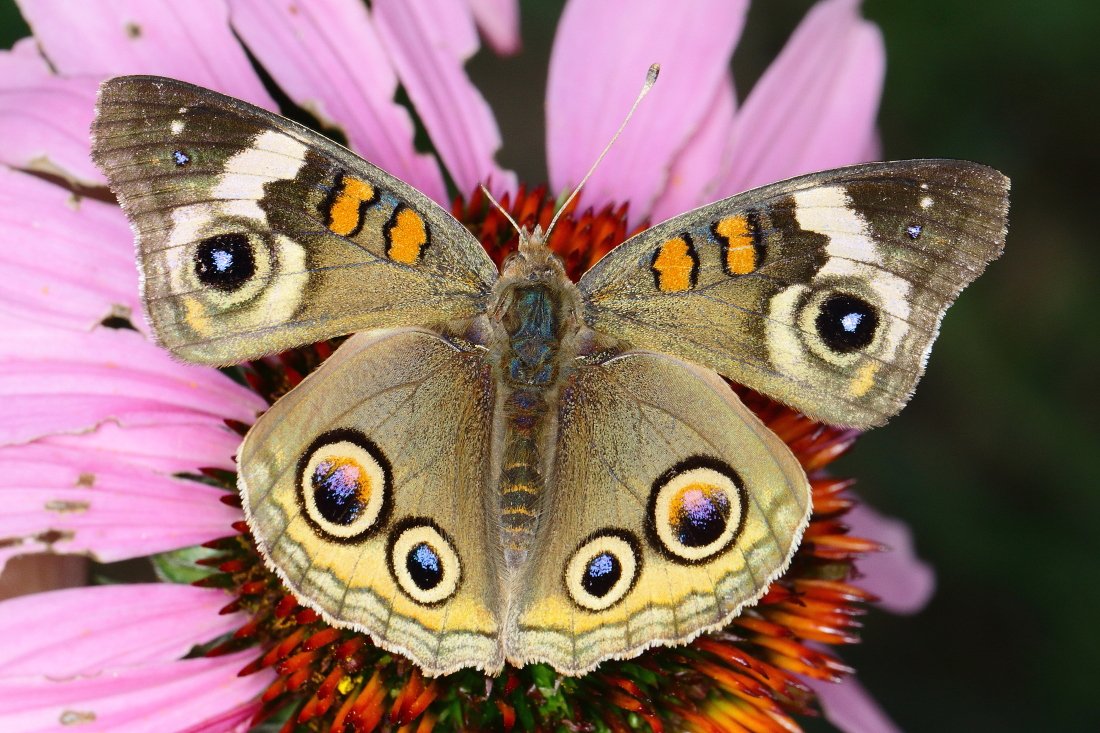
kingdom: Animalia
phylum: Arthropoda
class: Insecta
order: Lepidoptera
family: Nymphalidae
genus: Junonia
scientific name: Junonia coenia
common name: Common Buckeye
